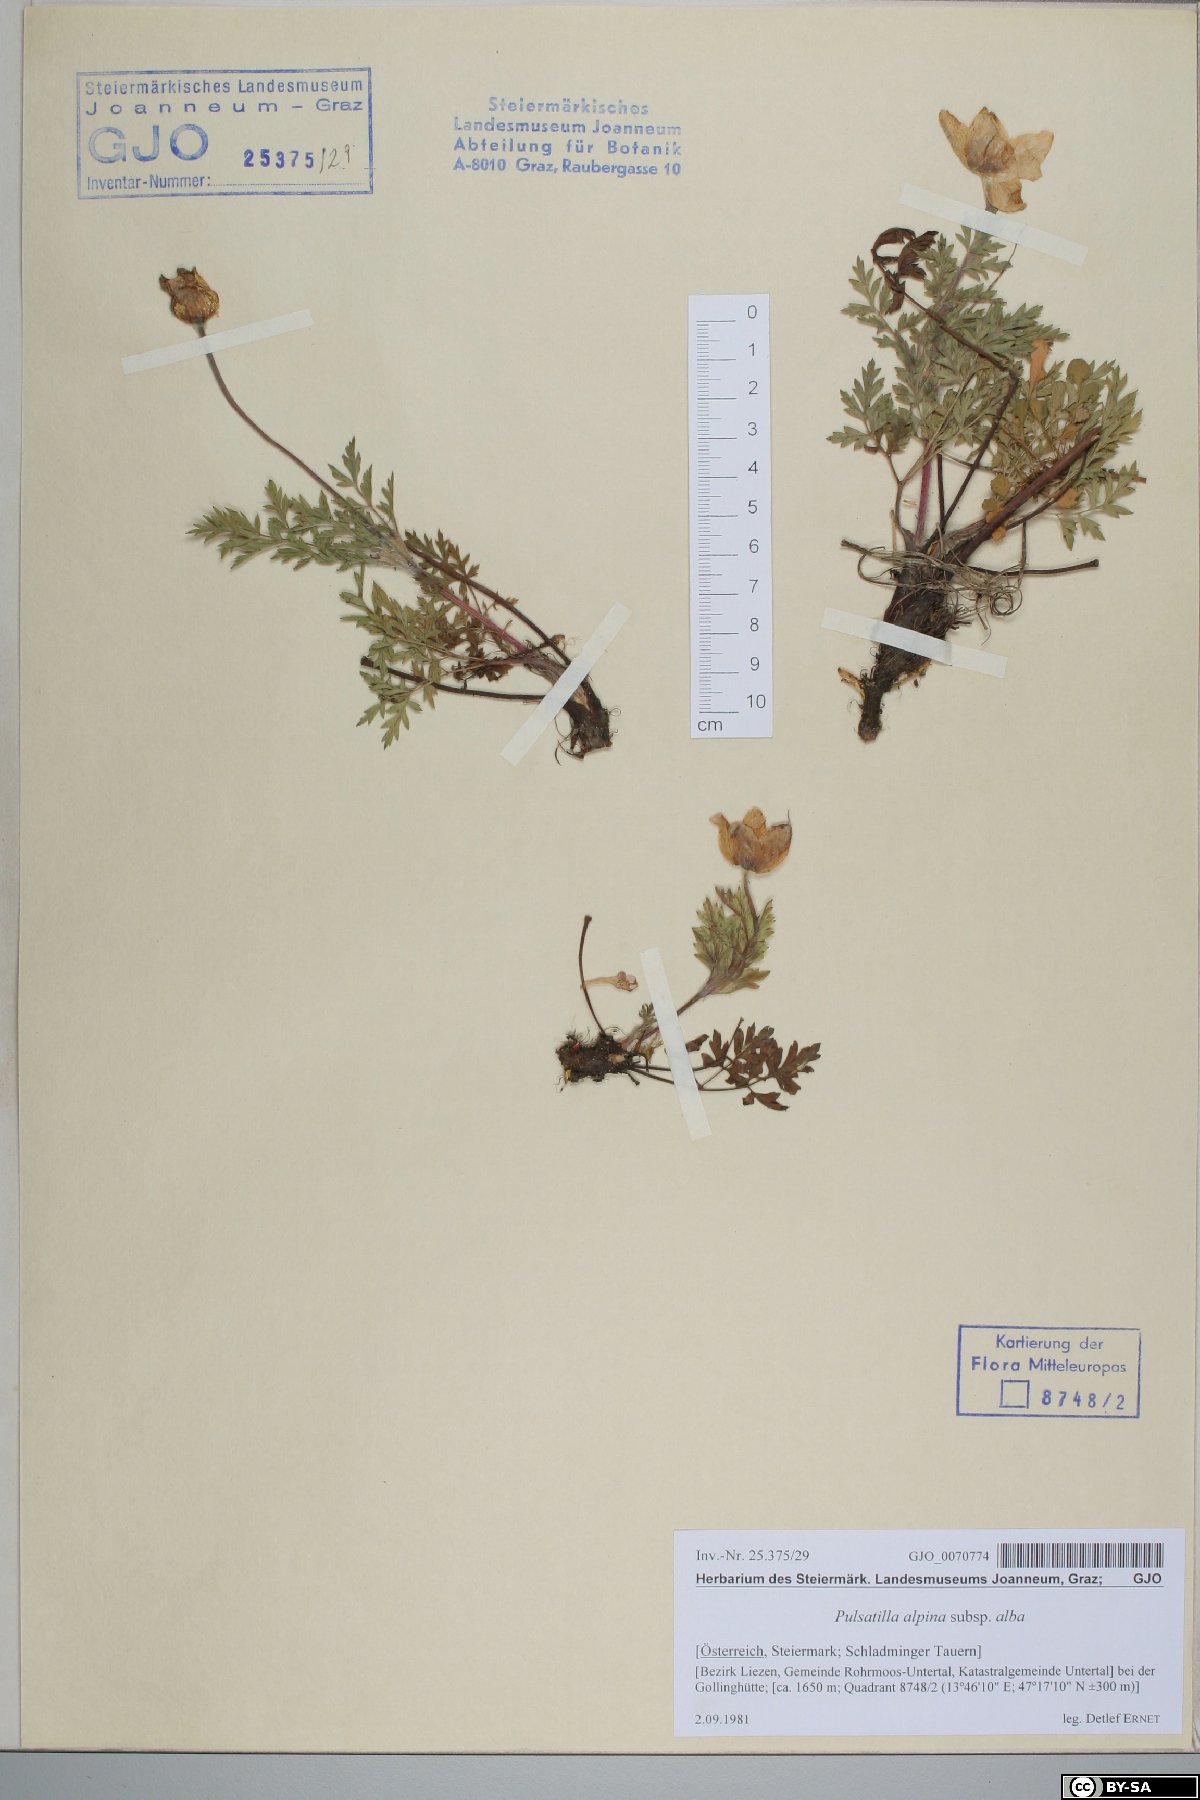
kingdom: Plantae
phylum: Tracheophyta
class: Magnoliopsida
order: Ranunculales
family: Ranunculaceae
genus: Pulsatilla
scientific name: Pulsatilla alpina
